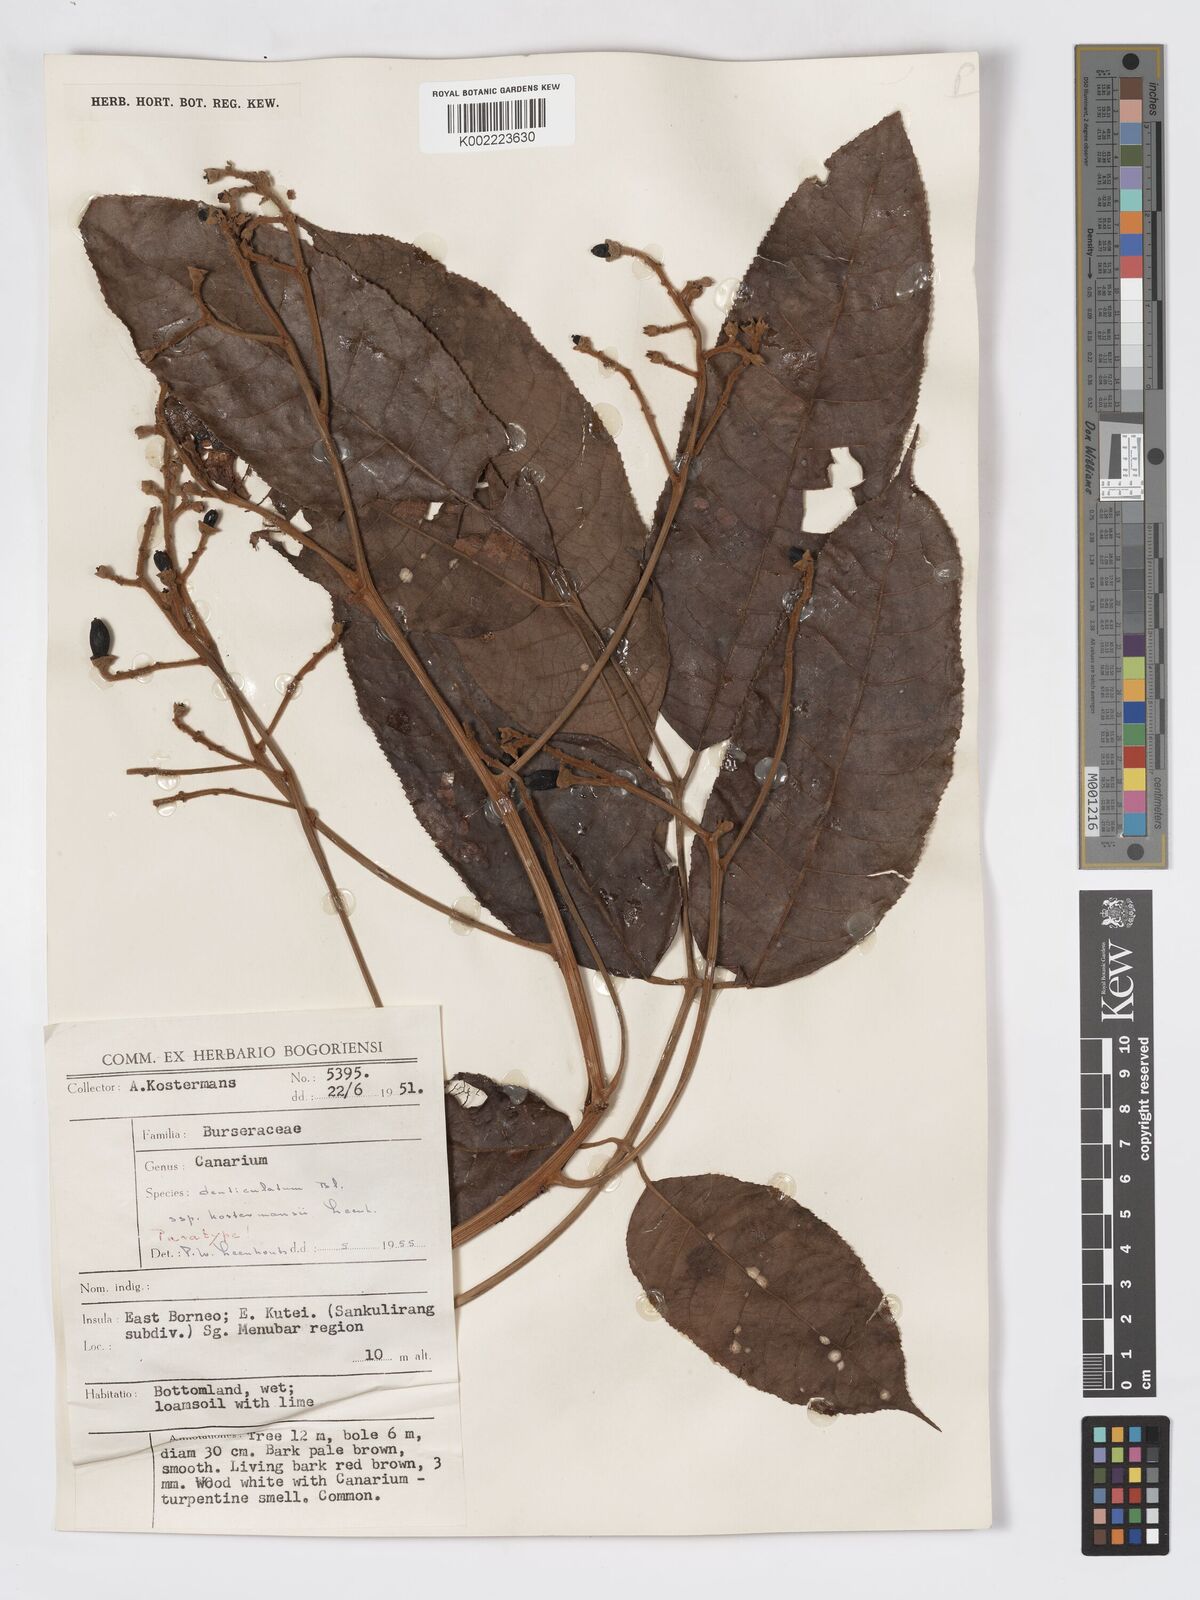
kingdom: Plantae
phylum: Tracheophyta
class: Magnoliopsida
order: Sapindales
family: Burseraceae
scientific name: Burseraceae
